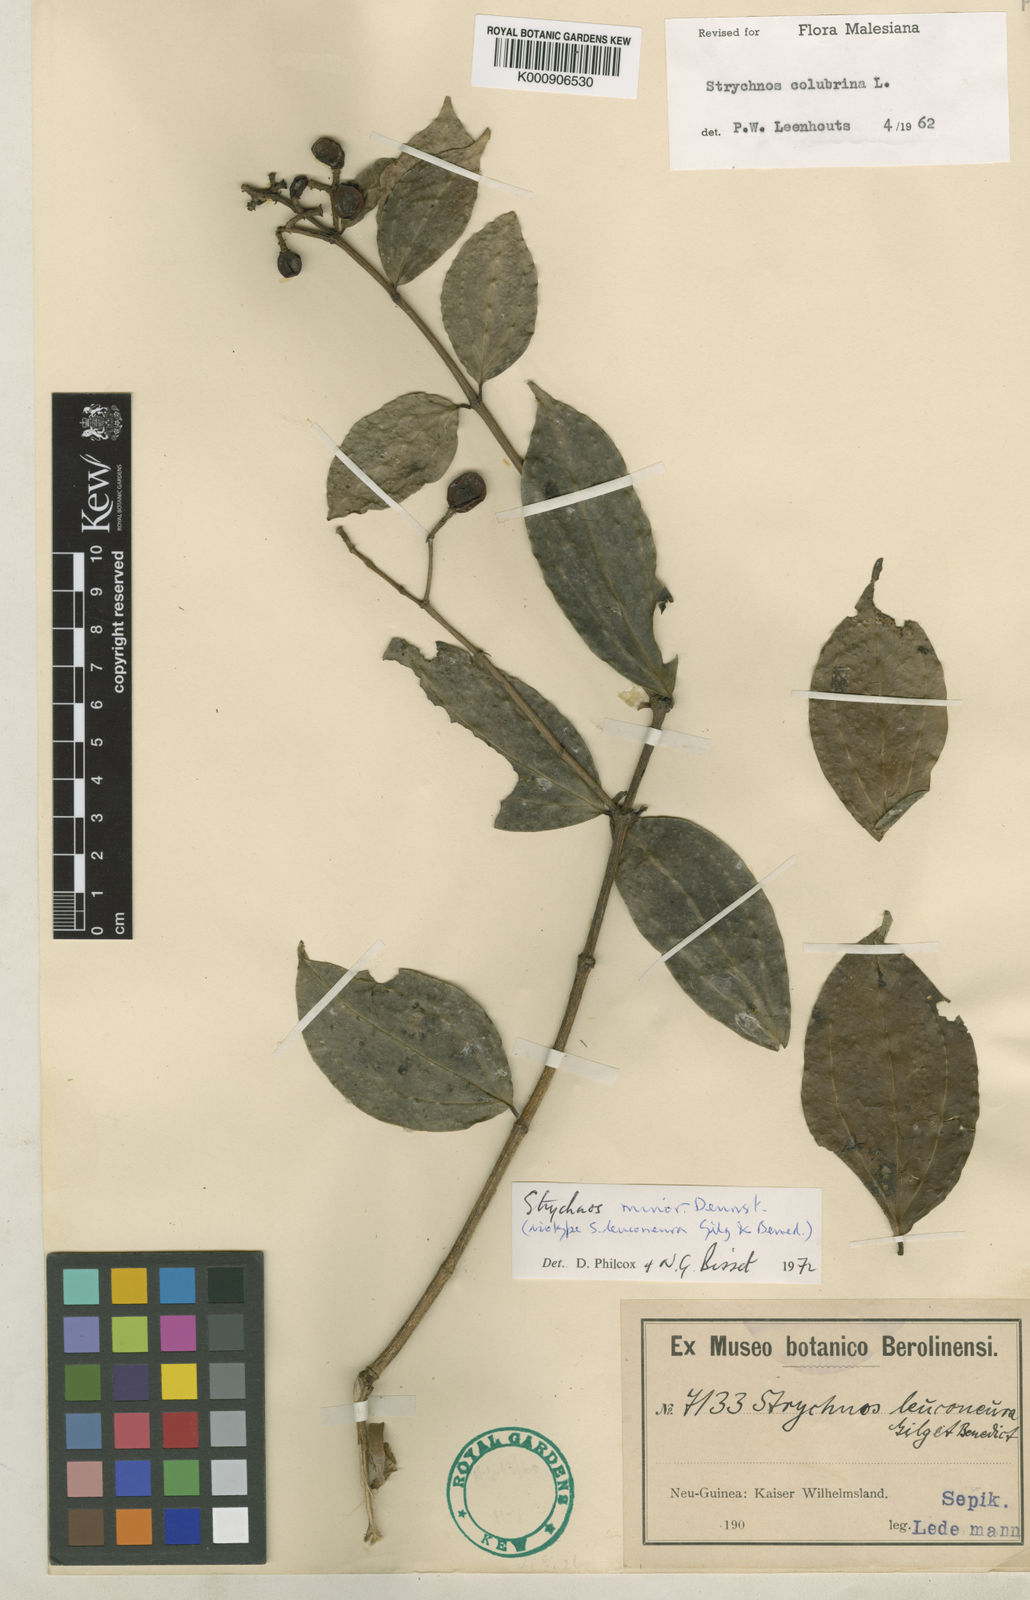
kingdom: Plantae
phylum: Tracheophyta
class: Magnoliopsida
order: Gentianales
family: Loganiaceae
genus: Strychnos
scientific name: Strychnos minor
